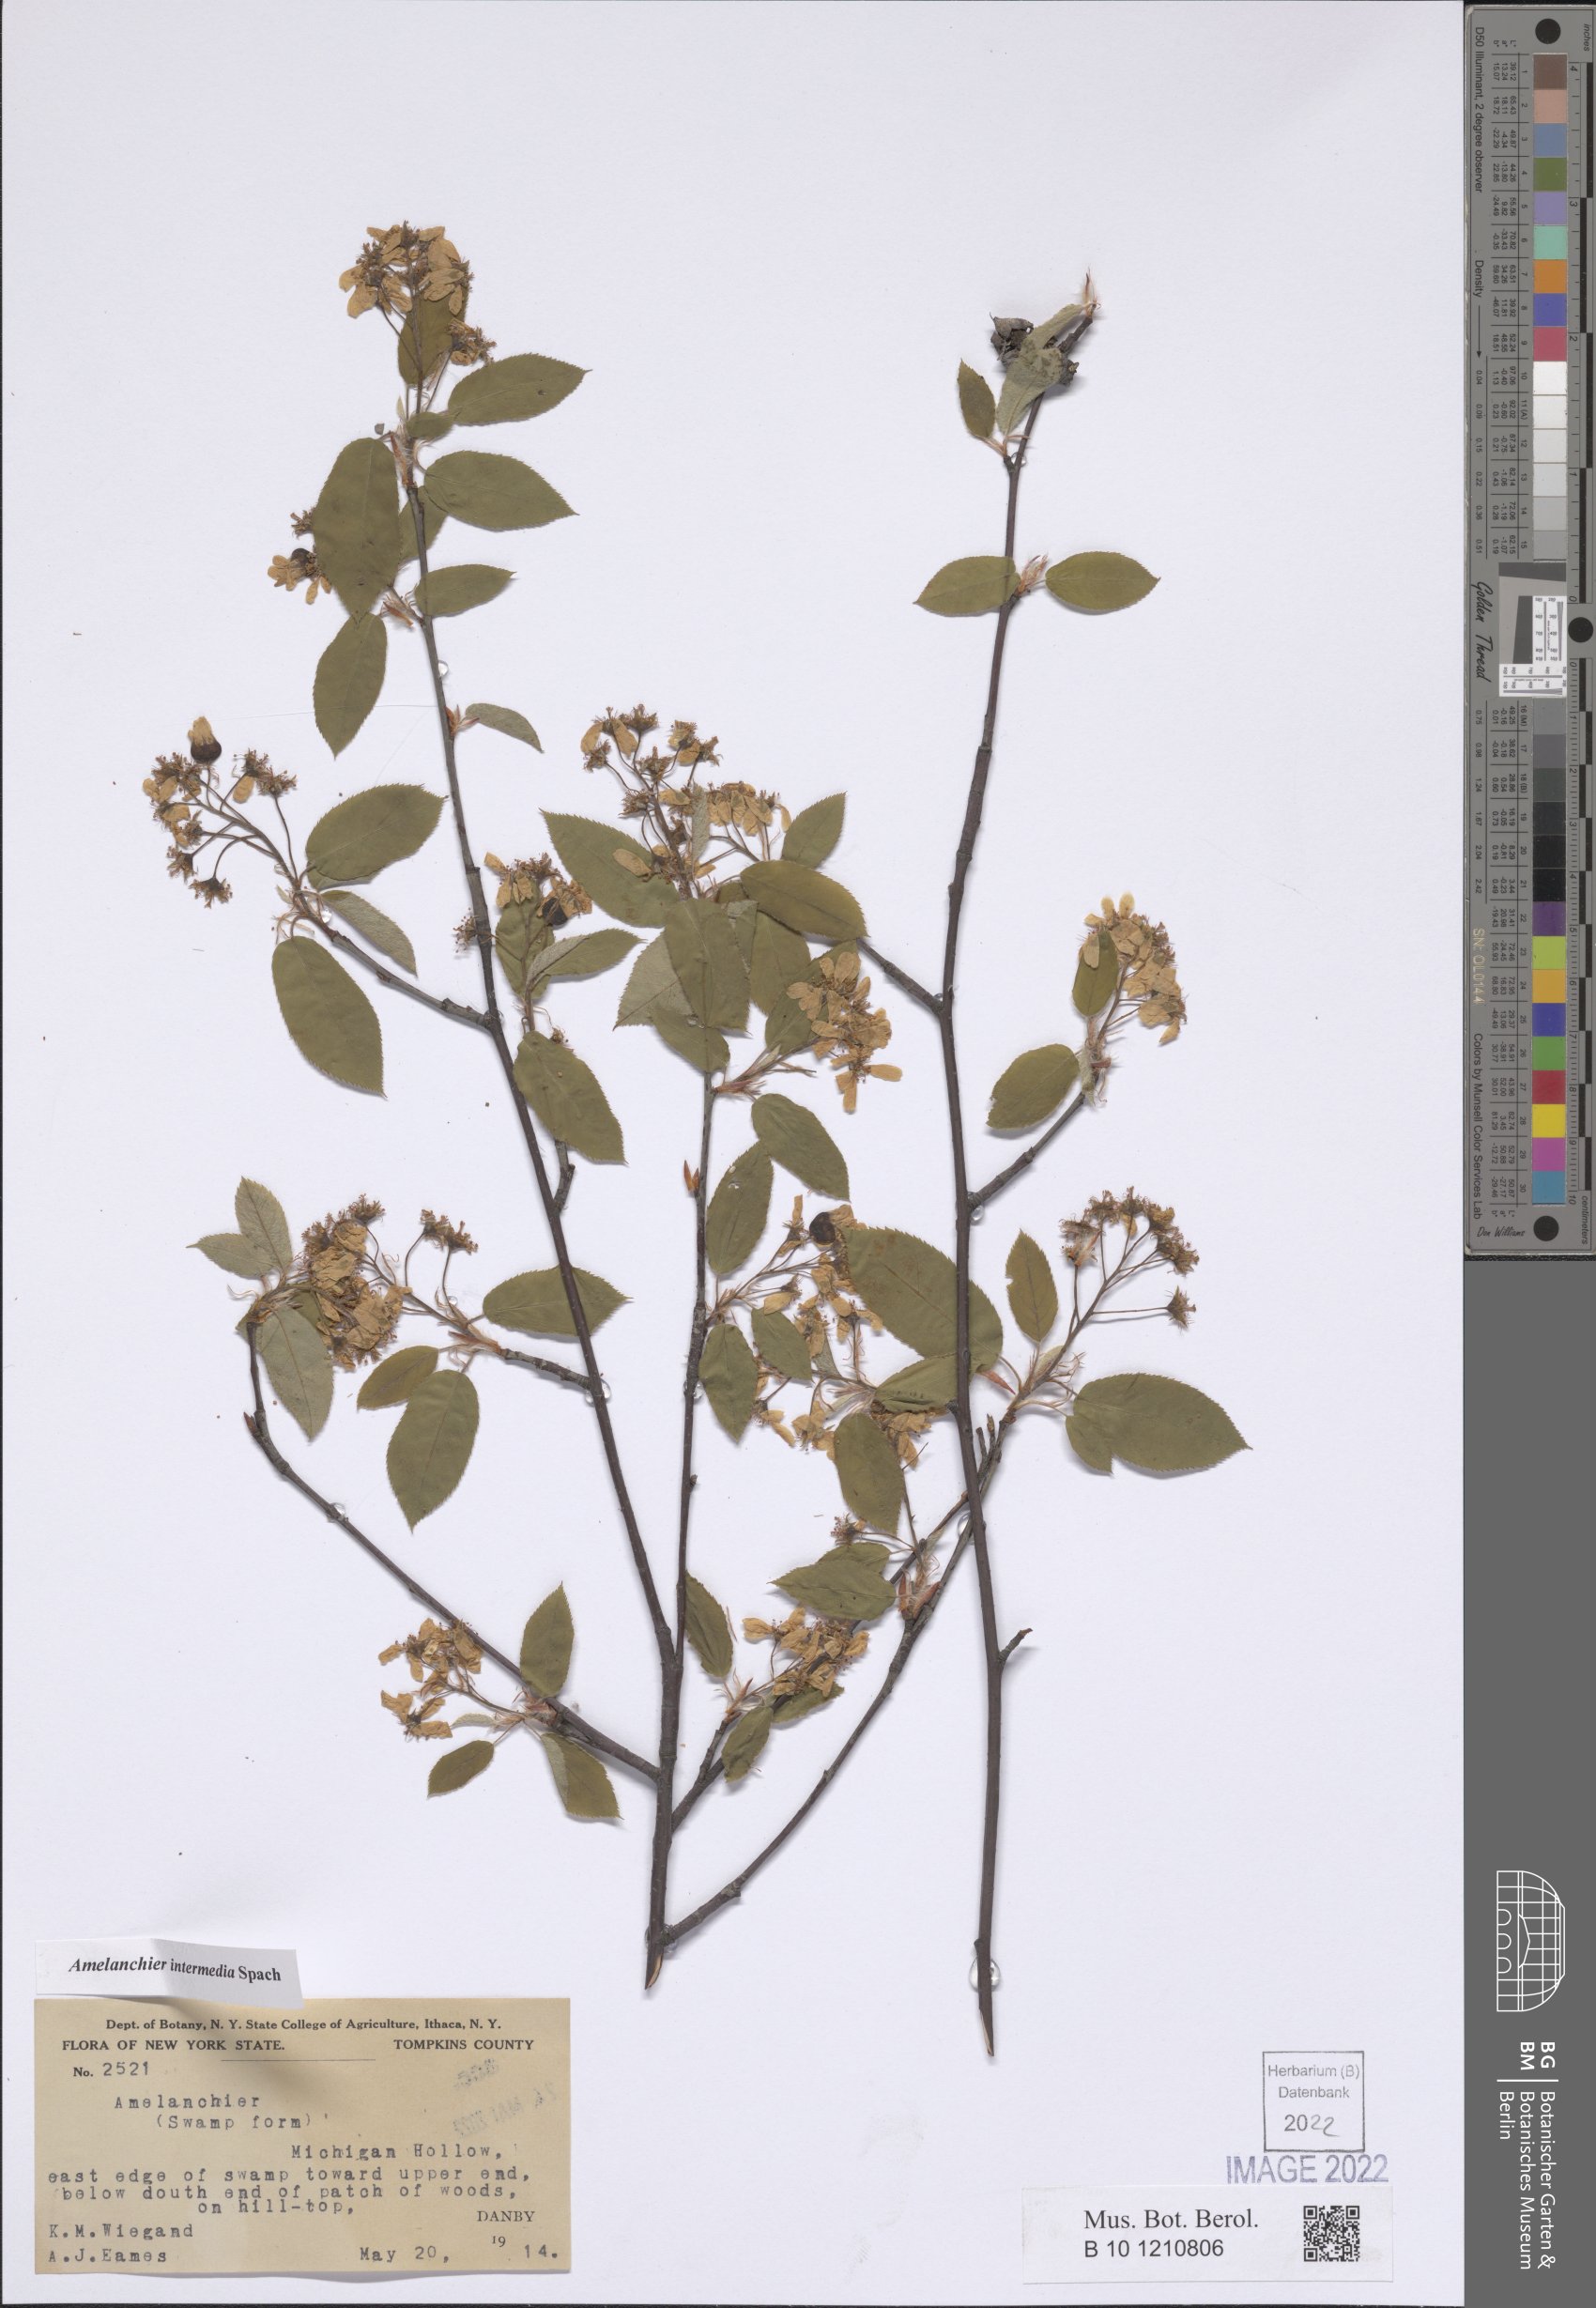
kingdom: Plantae
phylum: Tracheophyta
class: Magnoliopsida
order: Rosales
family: Rosaceae
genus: Amelanchier
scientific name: Amelanchier intermedia
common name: Intermediate shadbush
